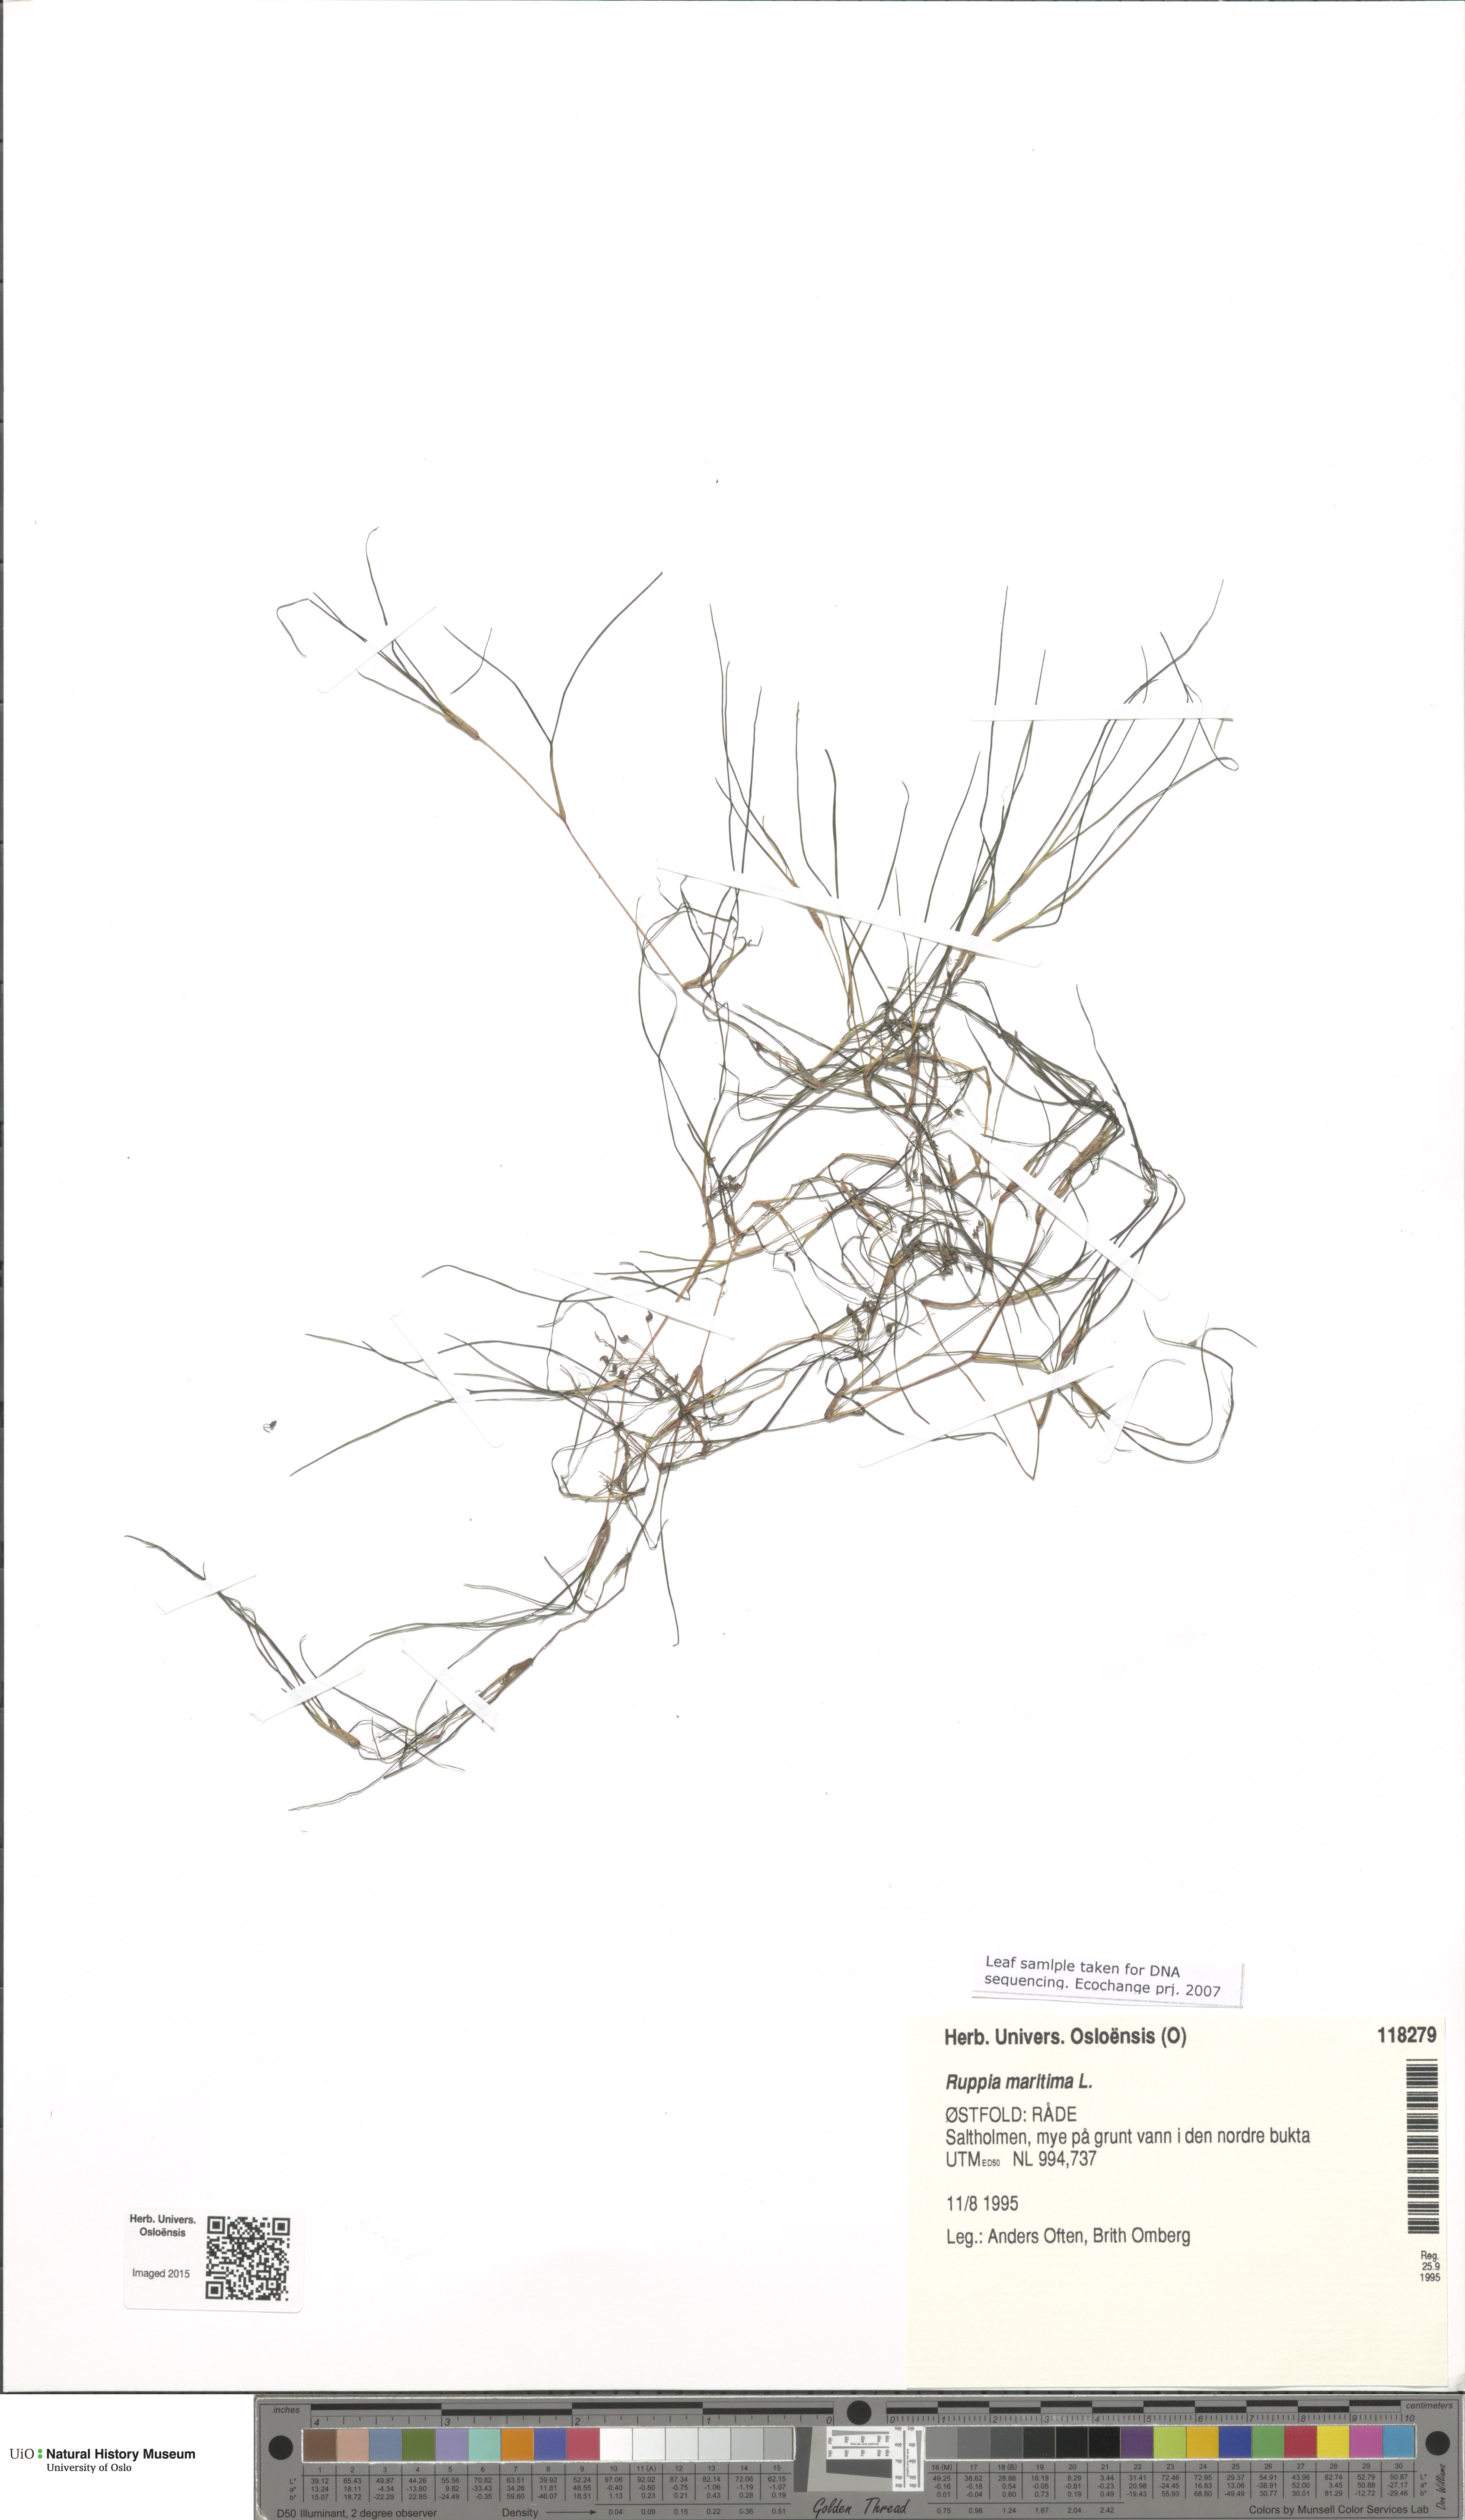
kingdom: Plantae
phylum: Tracheophyta
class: Liliopsida
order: Alismatales
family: Ruppiaceae
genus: Ruppia
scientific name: Ruppia maritima
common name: Beaked tasselweed
